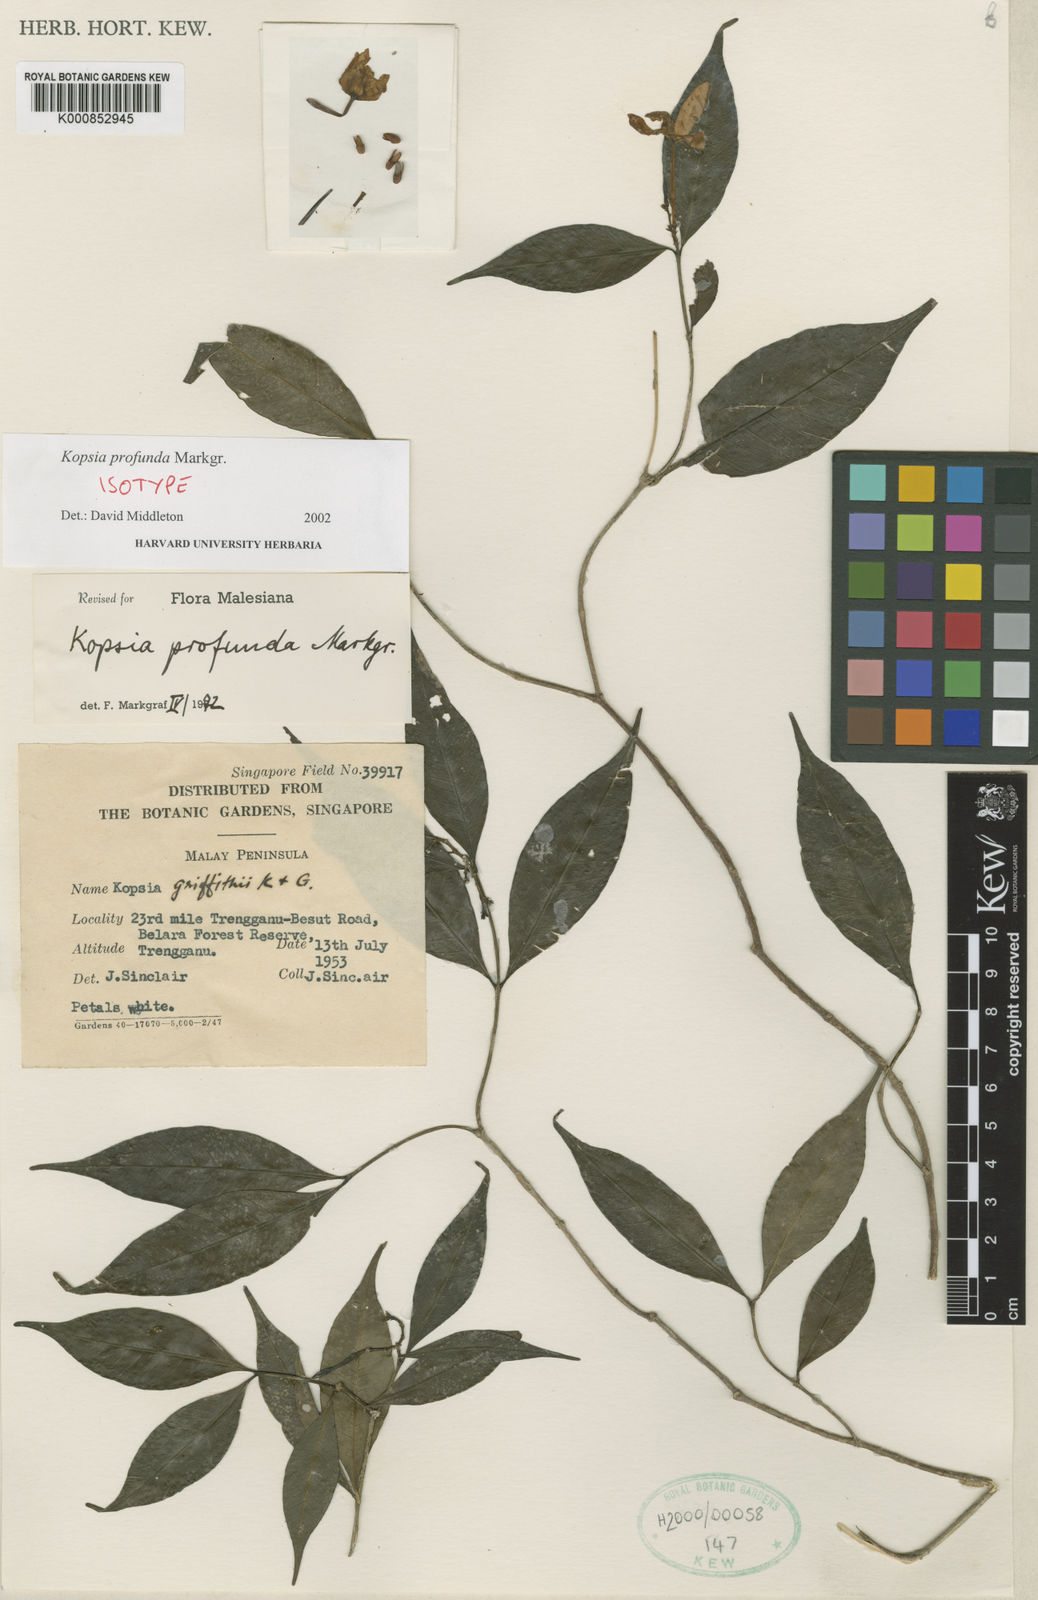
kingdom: Plantae
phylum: Tracheophyta
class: Magnoliopsida
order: Gentianales
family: Apocynaceae
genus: Kopsia
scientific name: Kopsia profunda
